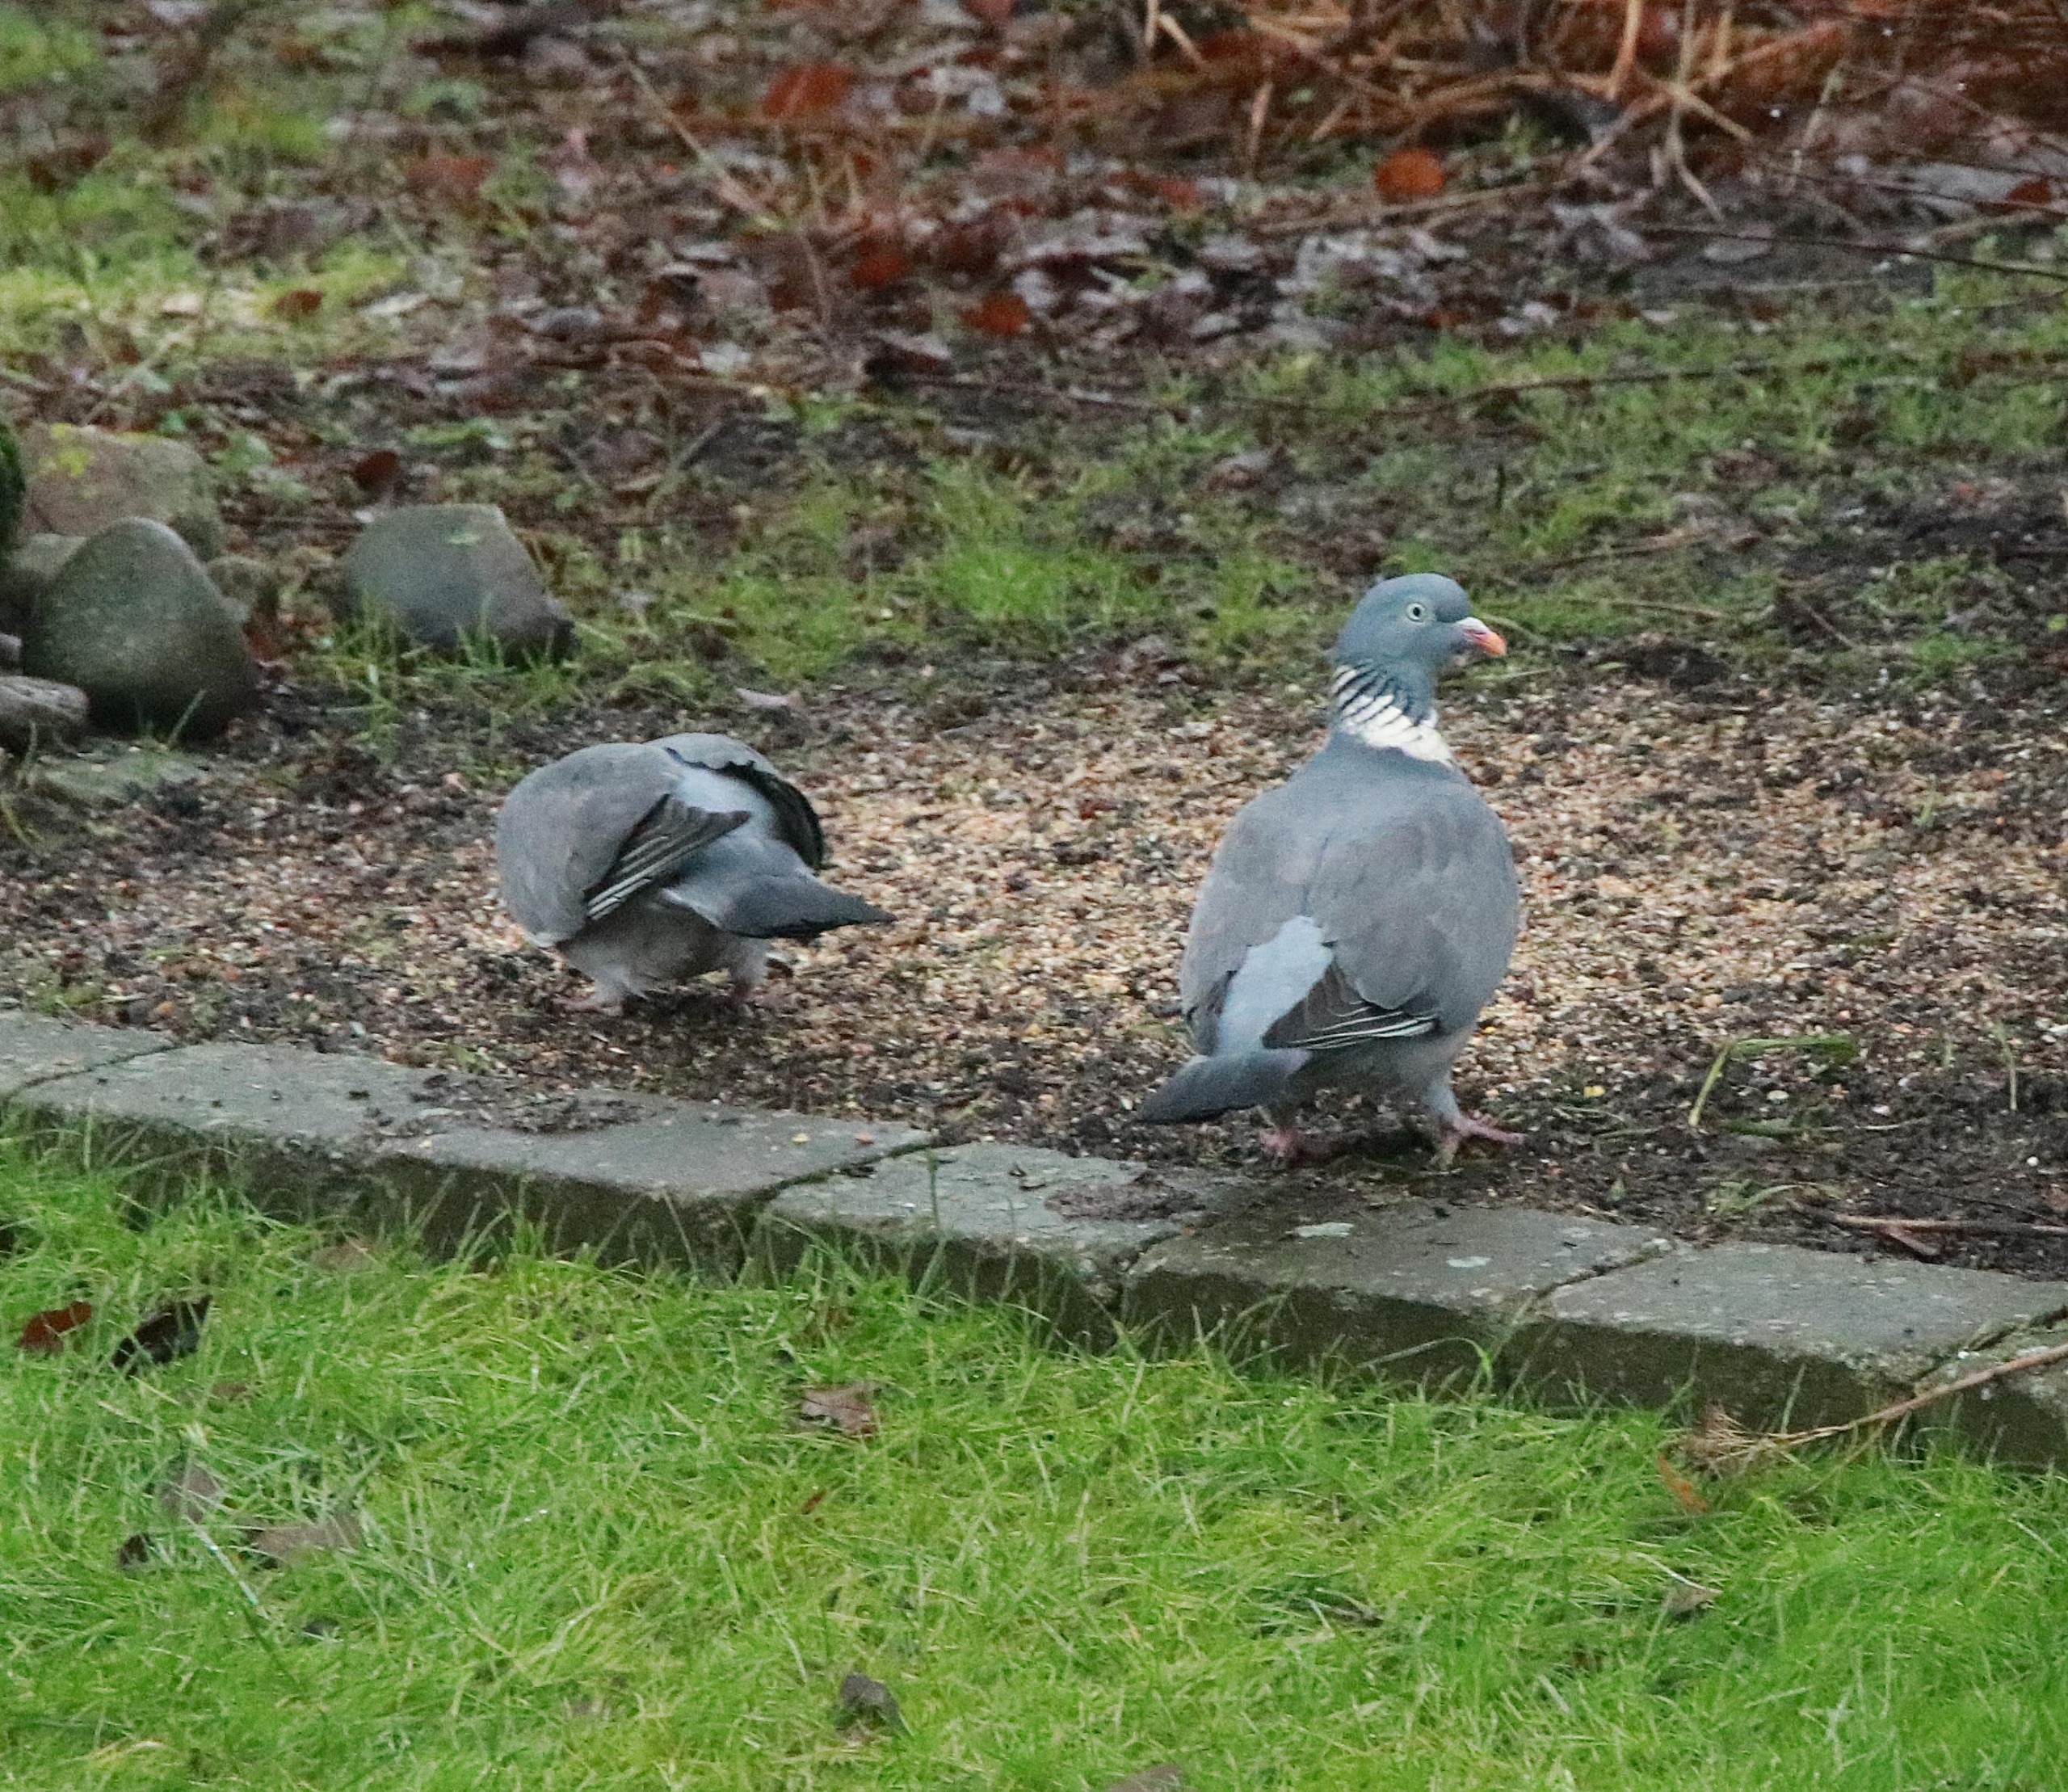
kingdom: Animalia
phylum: Chordata
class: Aves
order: Columbiformes
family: Columbidae
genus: Columba
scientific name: Columba palumbus
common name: Ringdue
